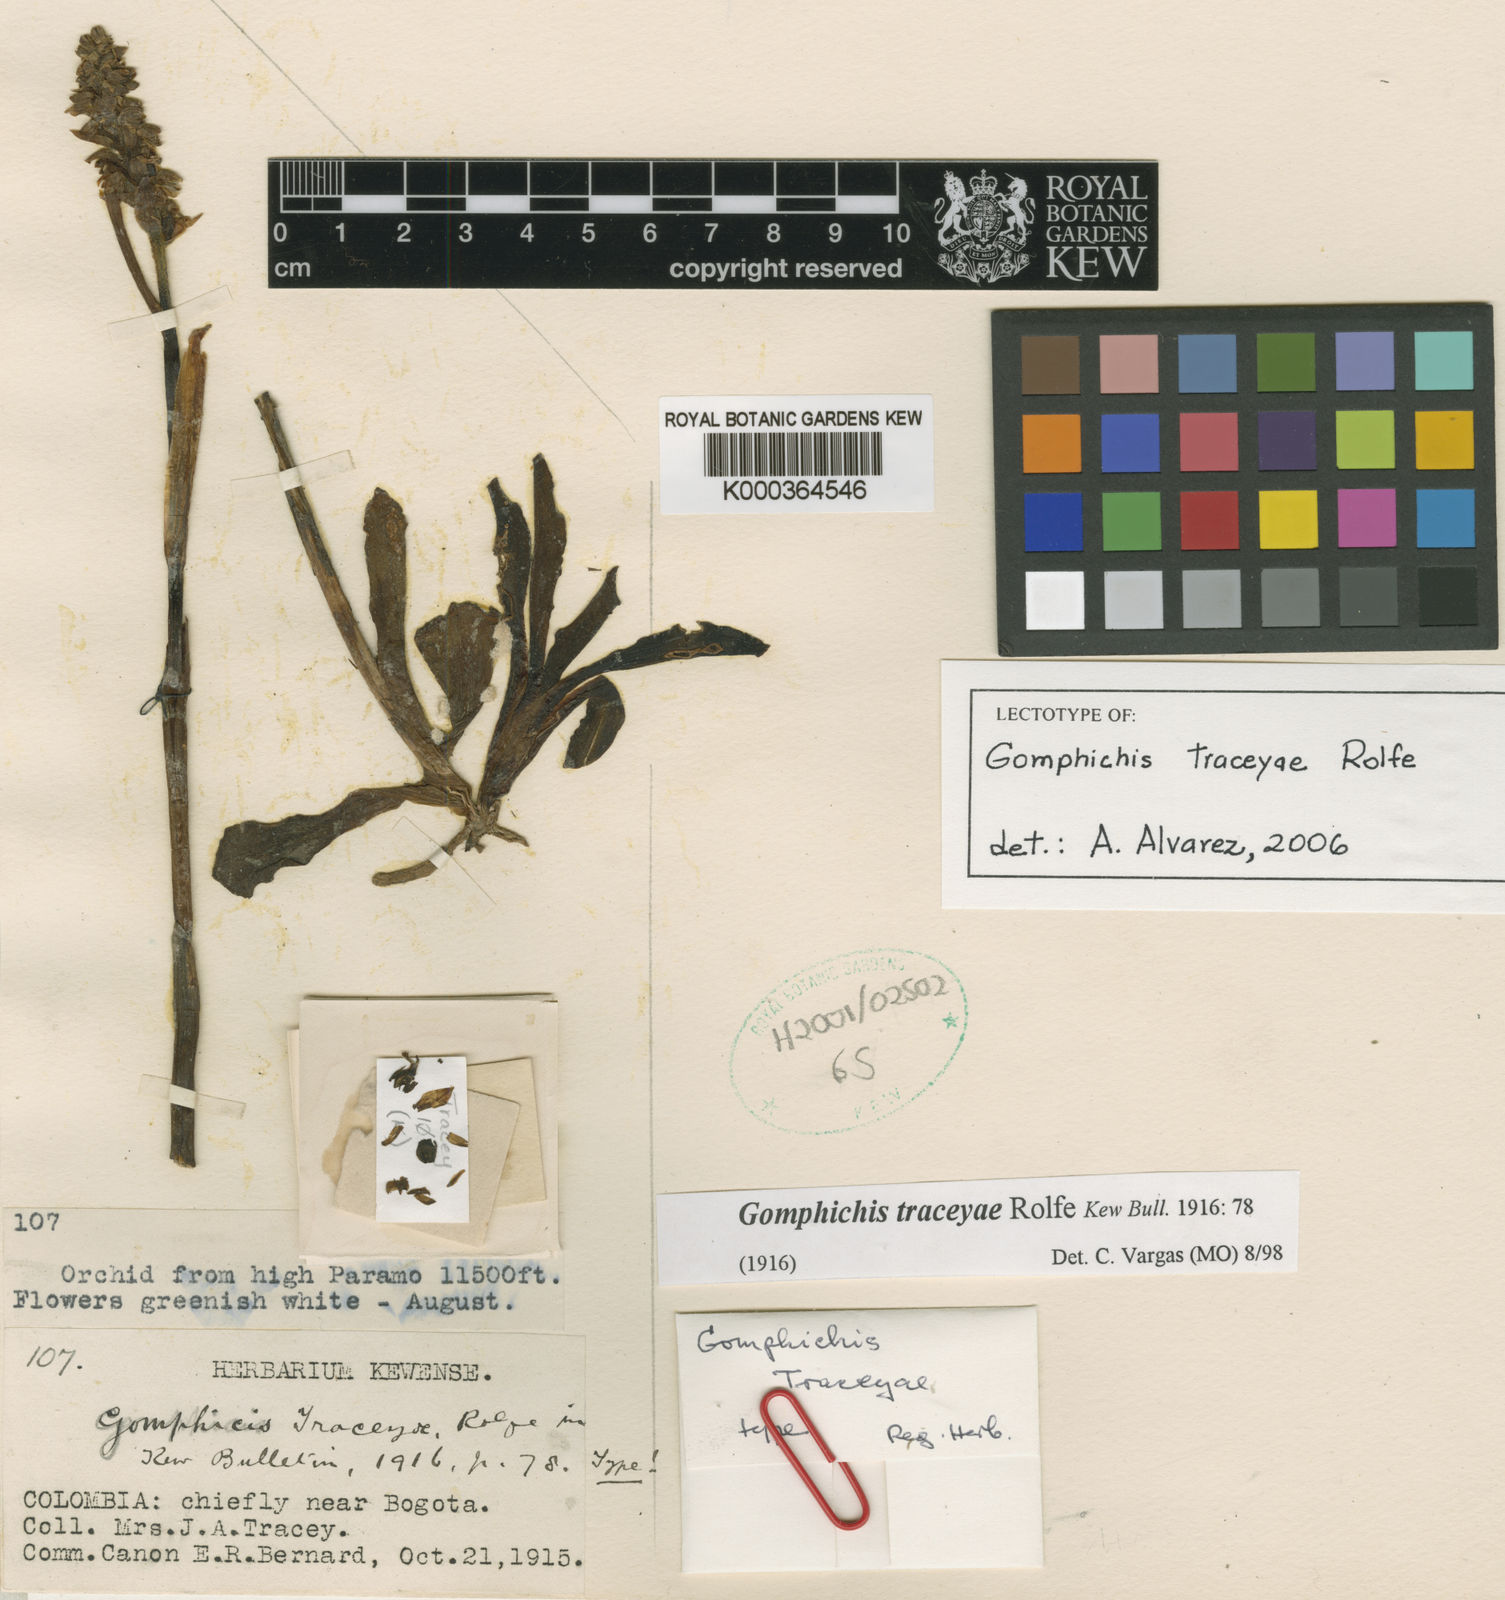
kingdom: Plantae
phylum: Tracheophyta
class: Liliopsida
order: Asparagales
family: Orchidaceae
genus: Gomphichis
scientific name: Gomphichis traceyae
